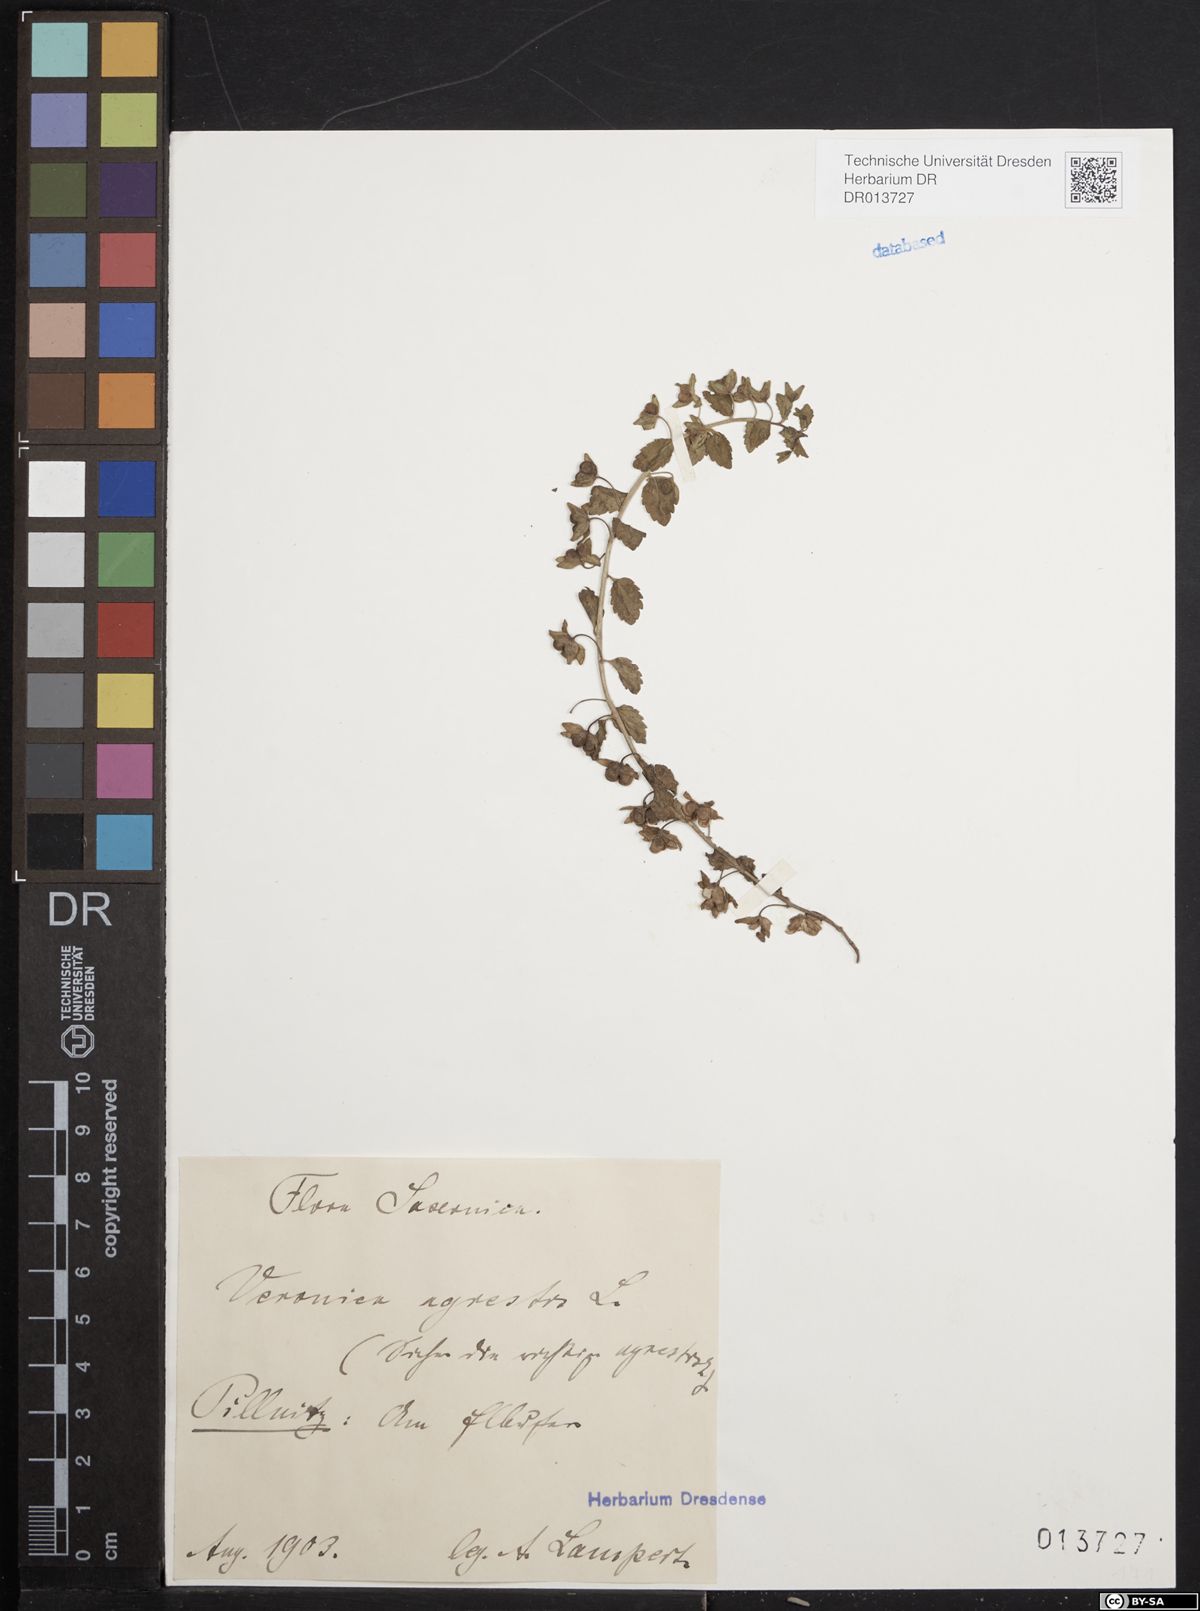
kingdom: Plantae
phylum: Tracheophyta
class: Magnoliopsida
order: Lamiales
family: Plantaginaceae
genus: Veronica
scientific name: Veronica agrestis
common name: Green field-speedwell
